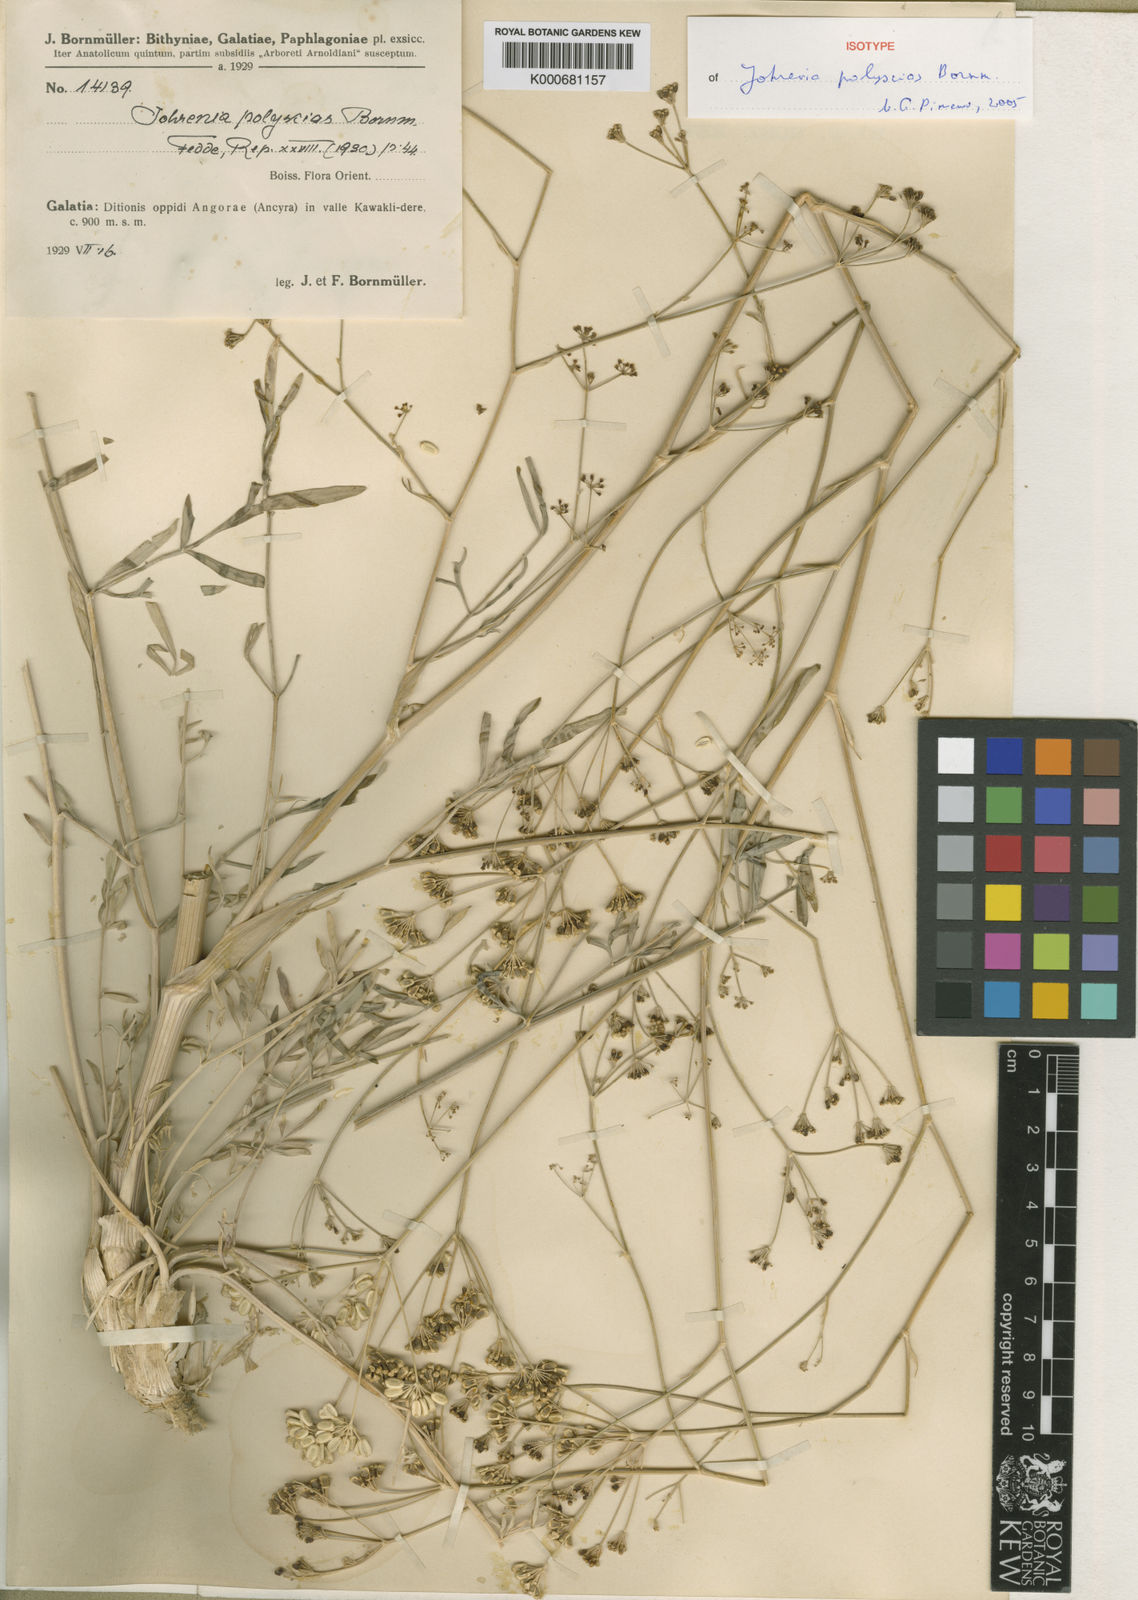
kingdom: Plantae
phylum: Tracheophyta
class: Magnoliopsida
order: Apiales
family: Apiaceae
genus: Johrenia
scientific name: Johrenia polyscias
